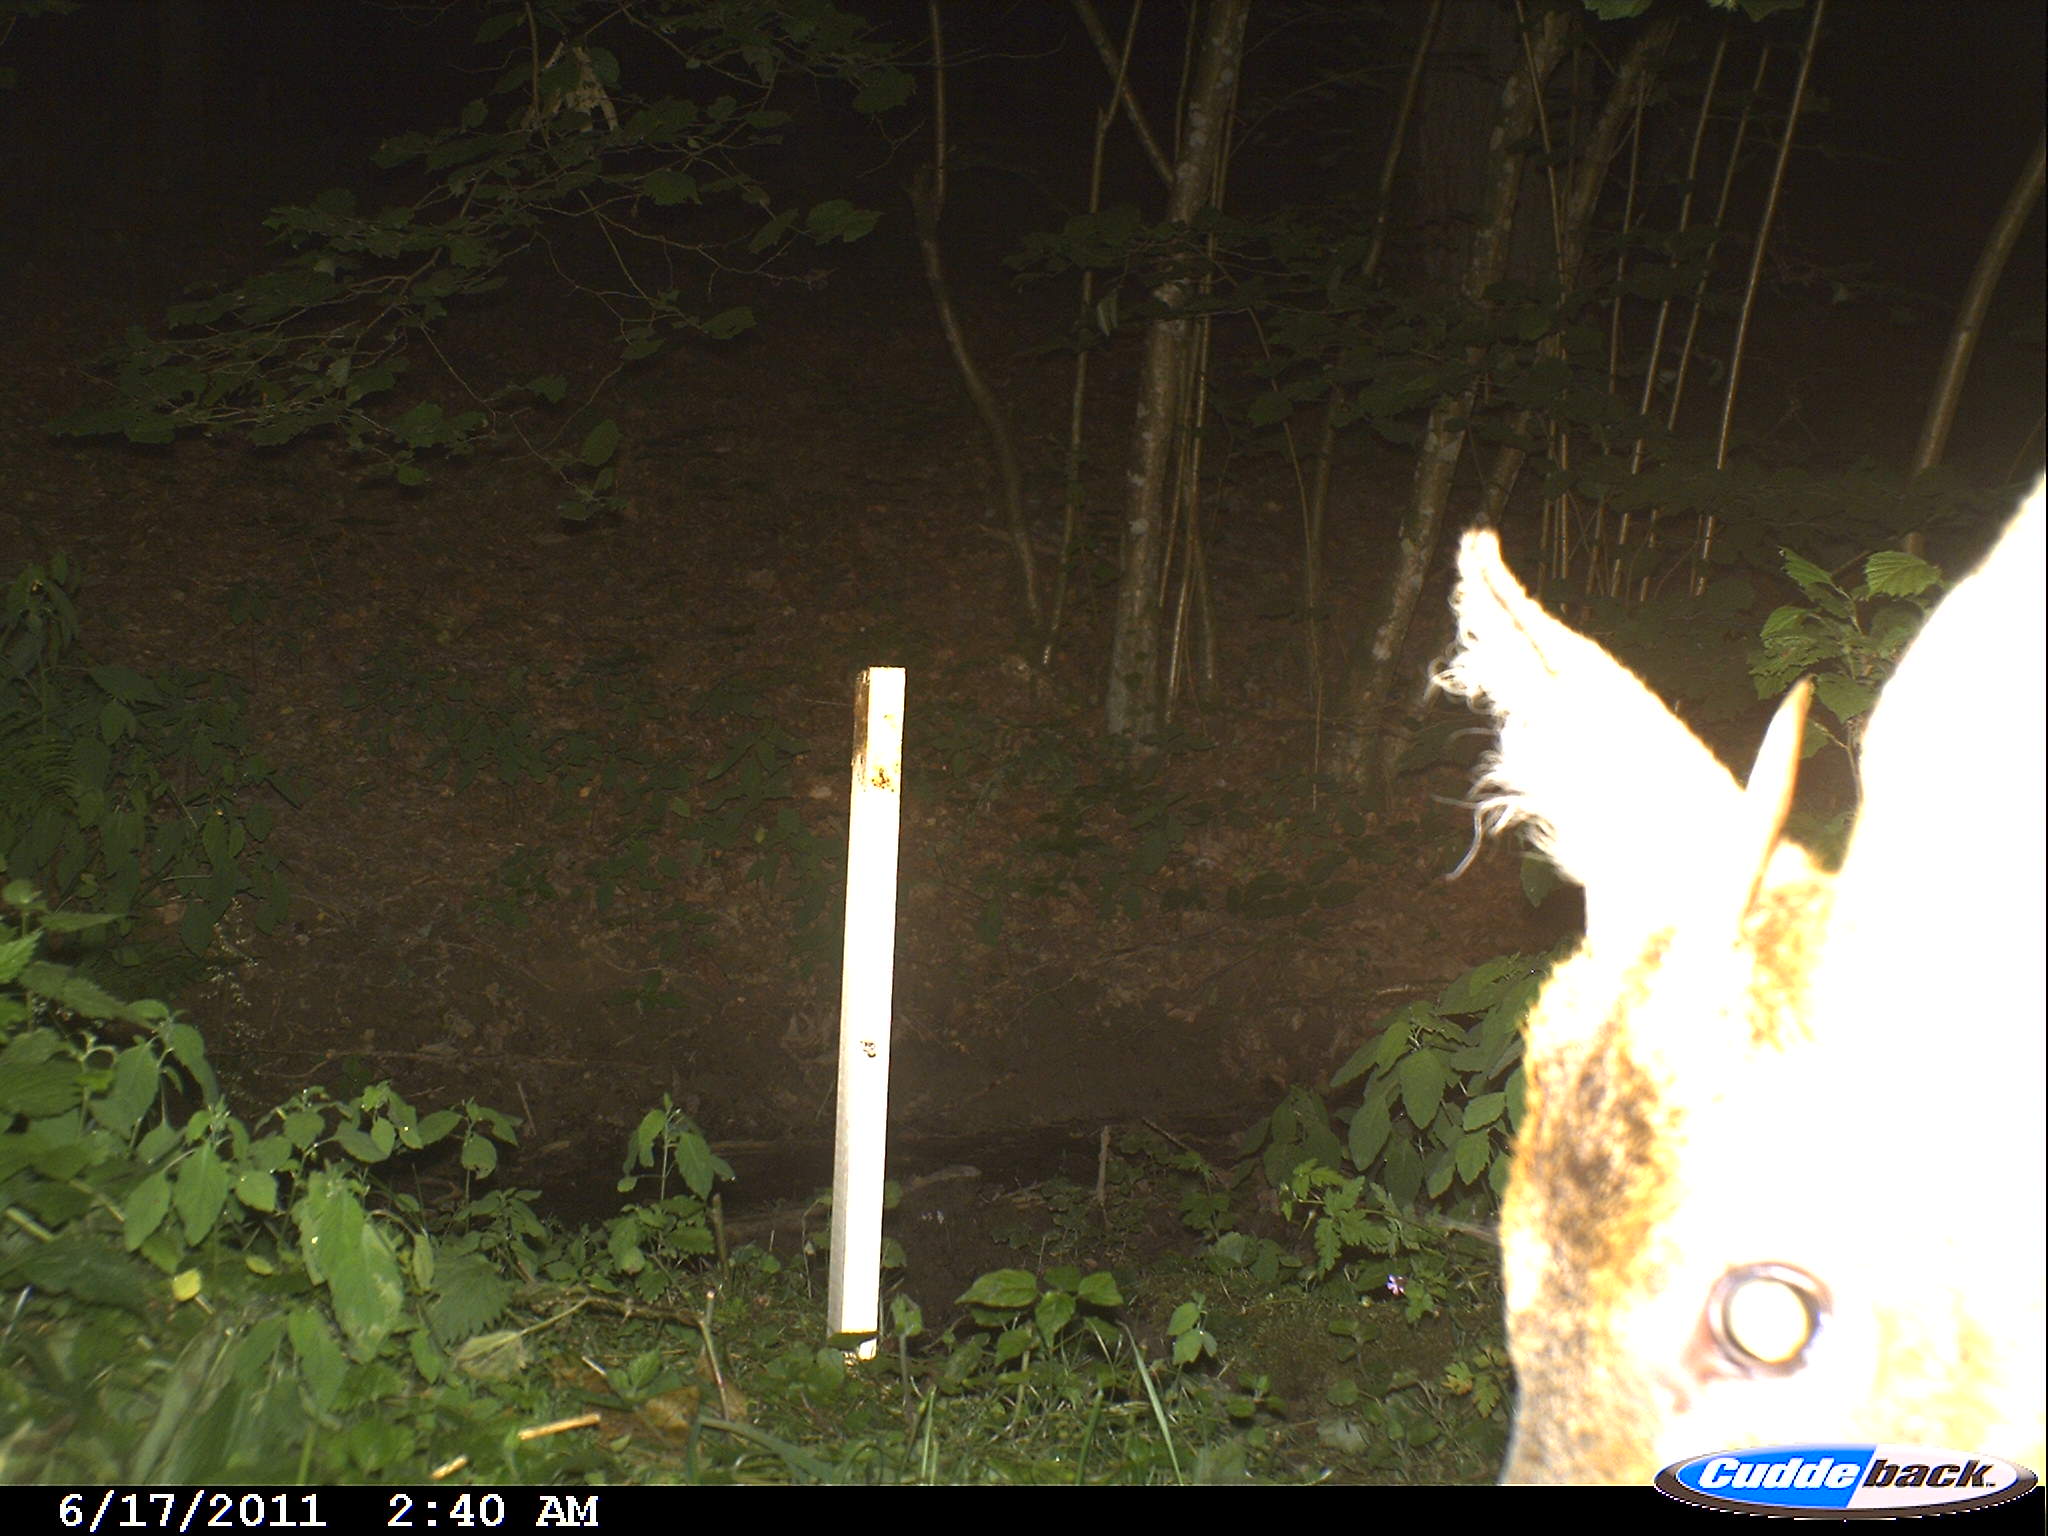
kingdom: Animalia
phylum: Chordata
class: Mammalia
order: Artiodactyla
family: Cervidae
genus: Capreolus
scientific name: Capreolus capreolus
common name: Western roe deer
